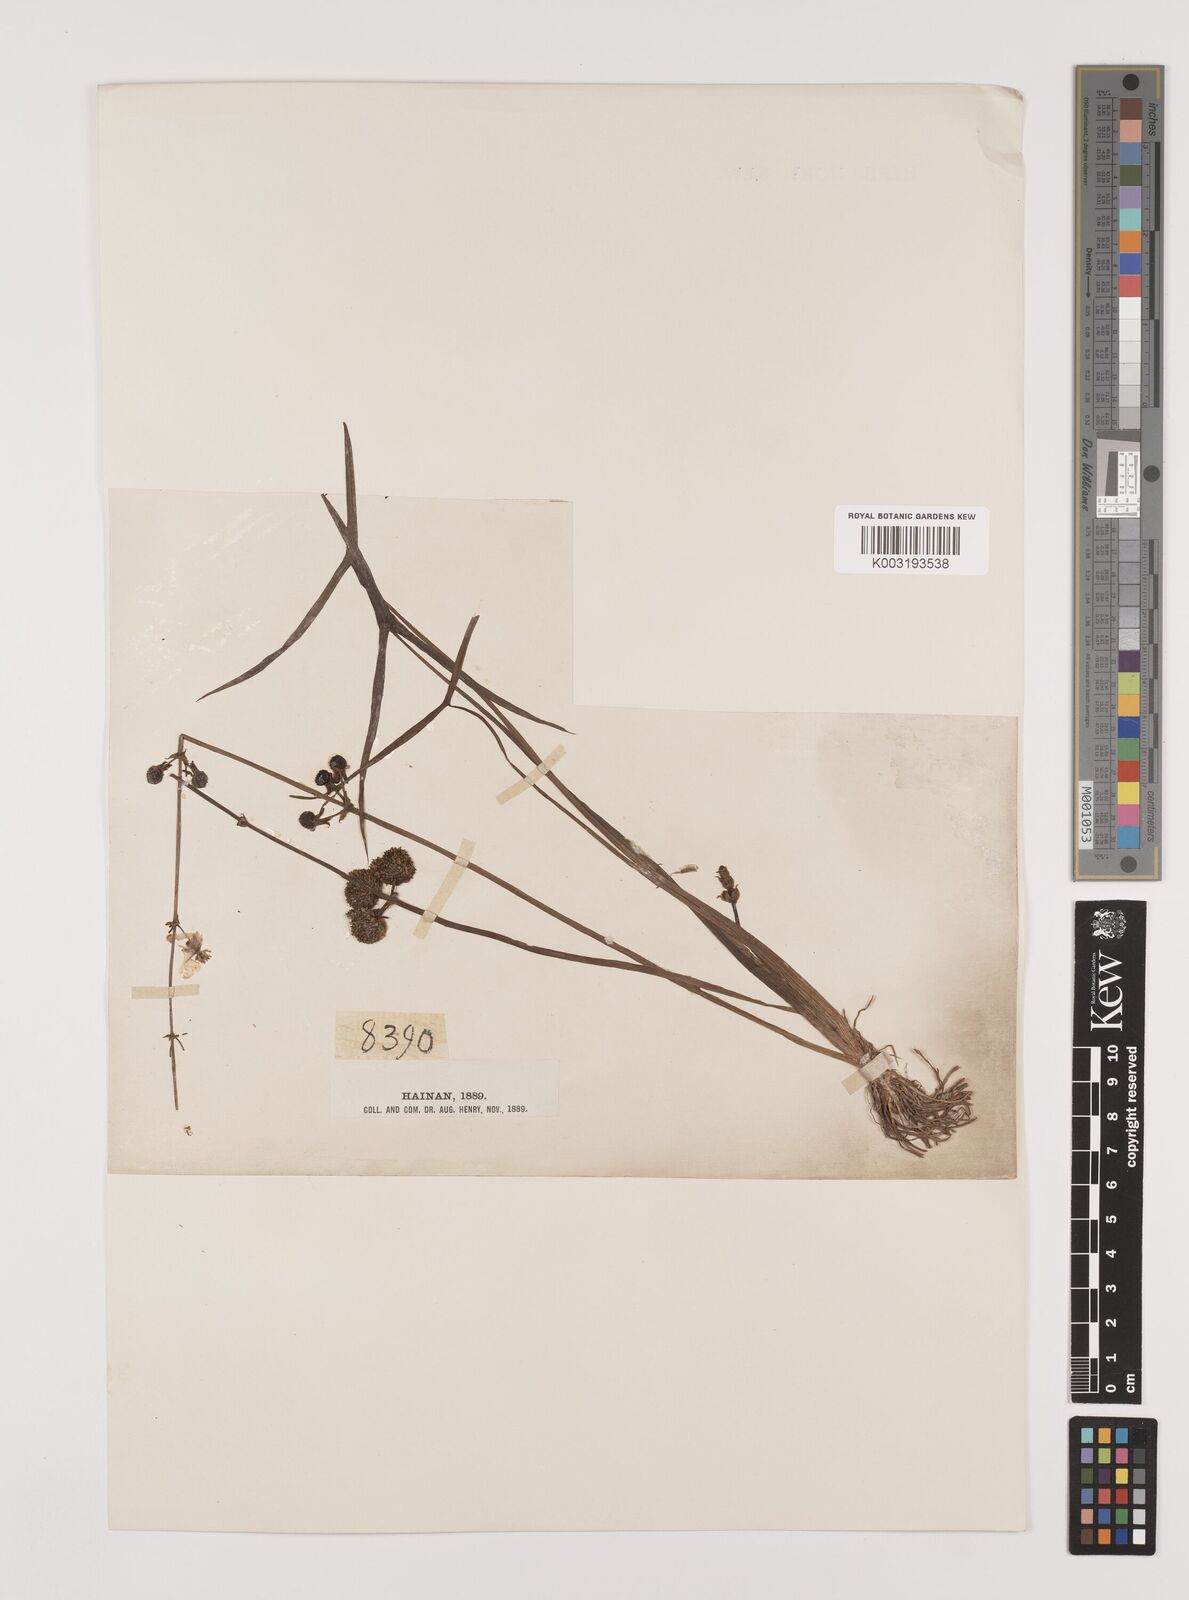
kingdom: Plantae
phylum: Tracheophyta
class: Liliopsida
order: Alismatales
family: Alismataceae
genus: Sagittaria
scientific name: Sagittaria sagittifolia
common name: Arrowhead
